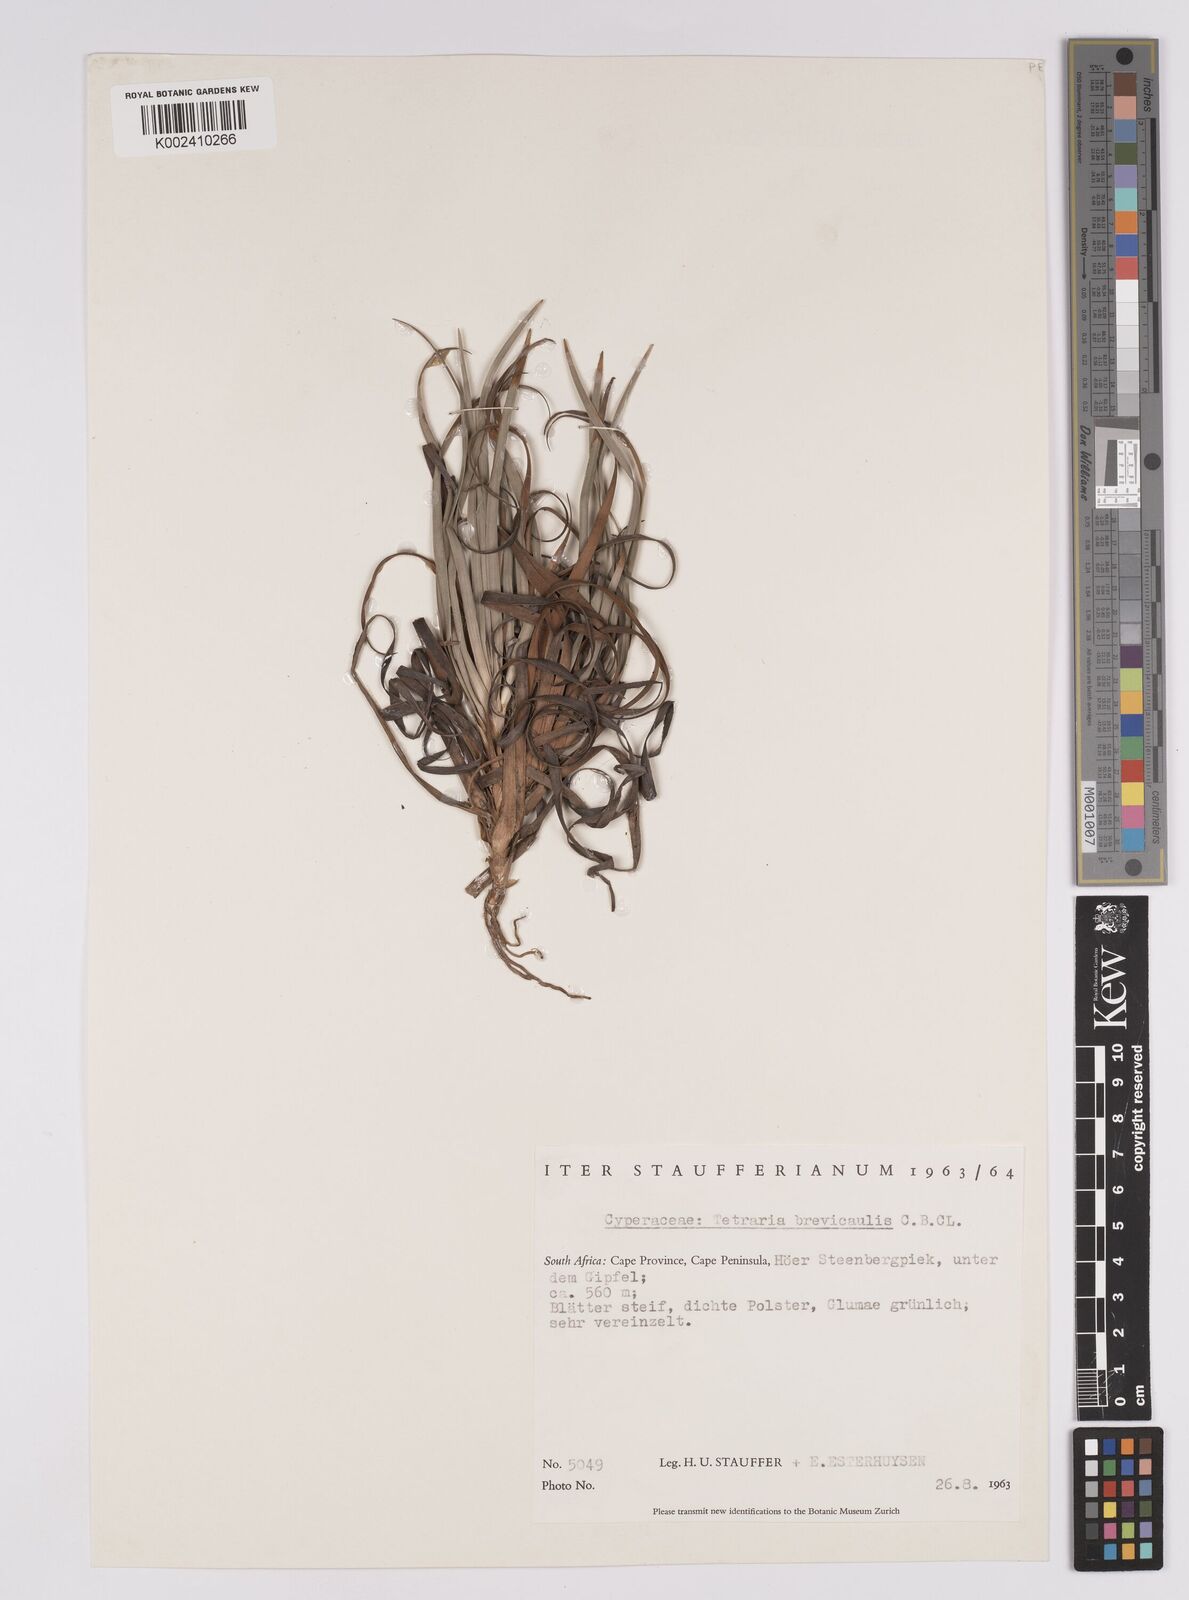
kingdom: Plantae
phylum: Tracheophyta
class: Liliopsida
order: Poales
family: Cyperaceae
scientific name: Cyperaceae
